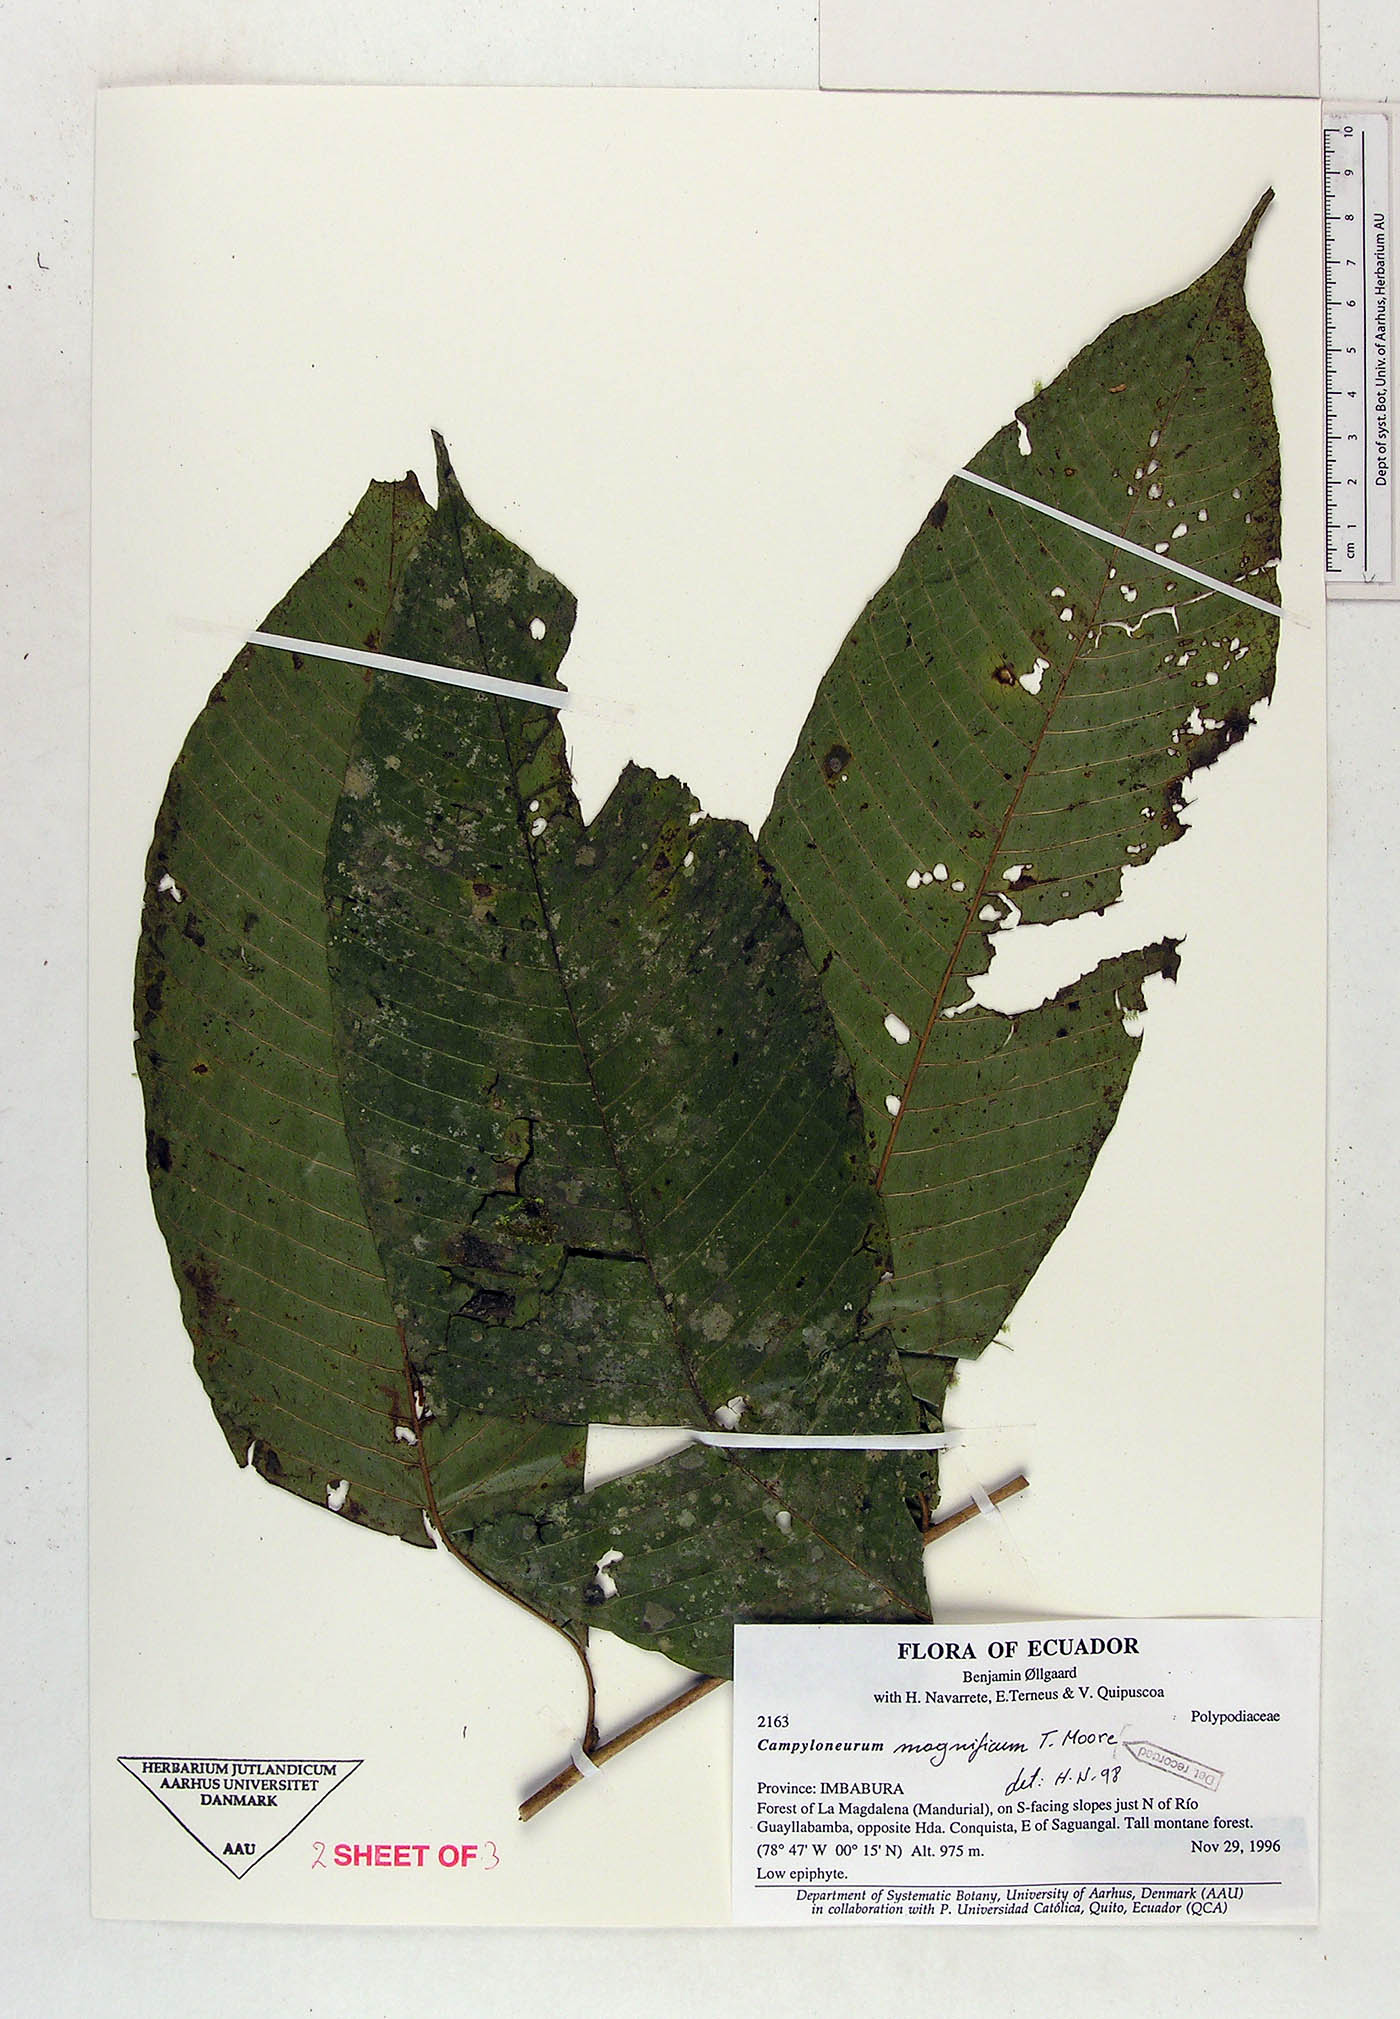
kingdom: Plantae
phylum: Tracheophyta
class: Polypodiopsida
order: Polypodiales
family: Polypodiaceae
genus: Campyloneurum
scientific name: Campyloneurum magnificum
